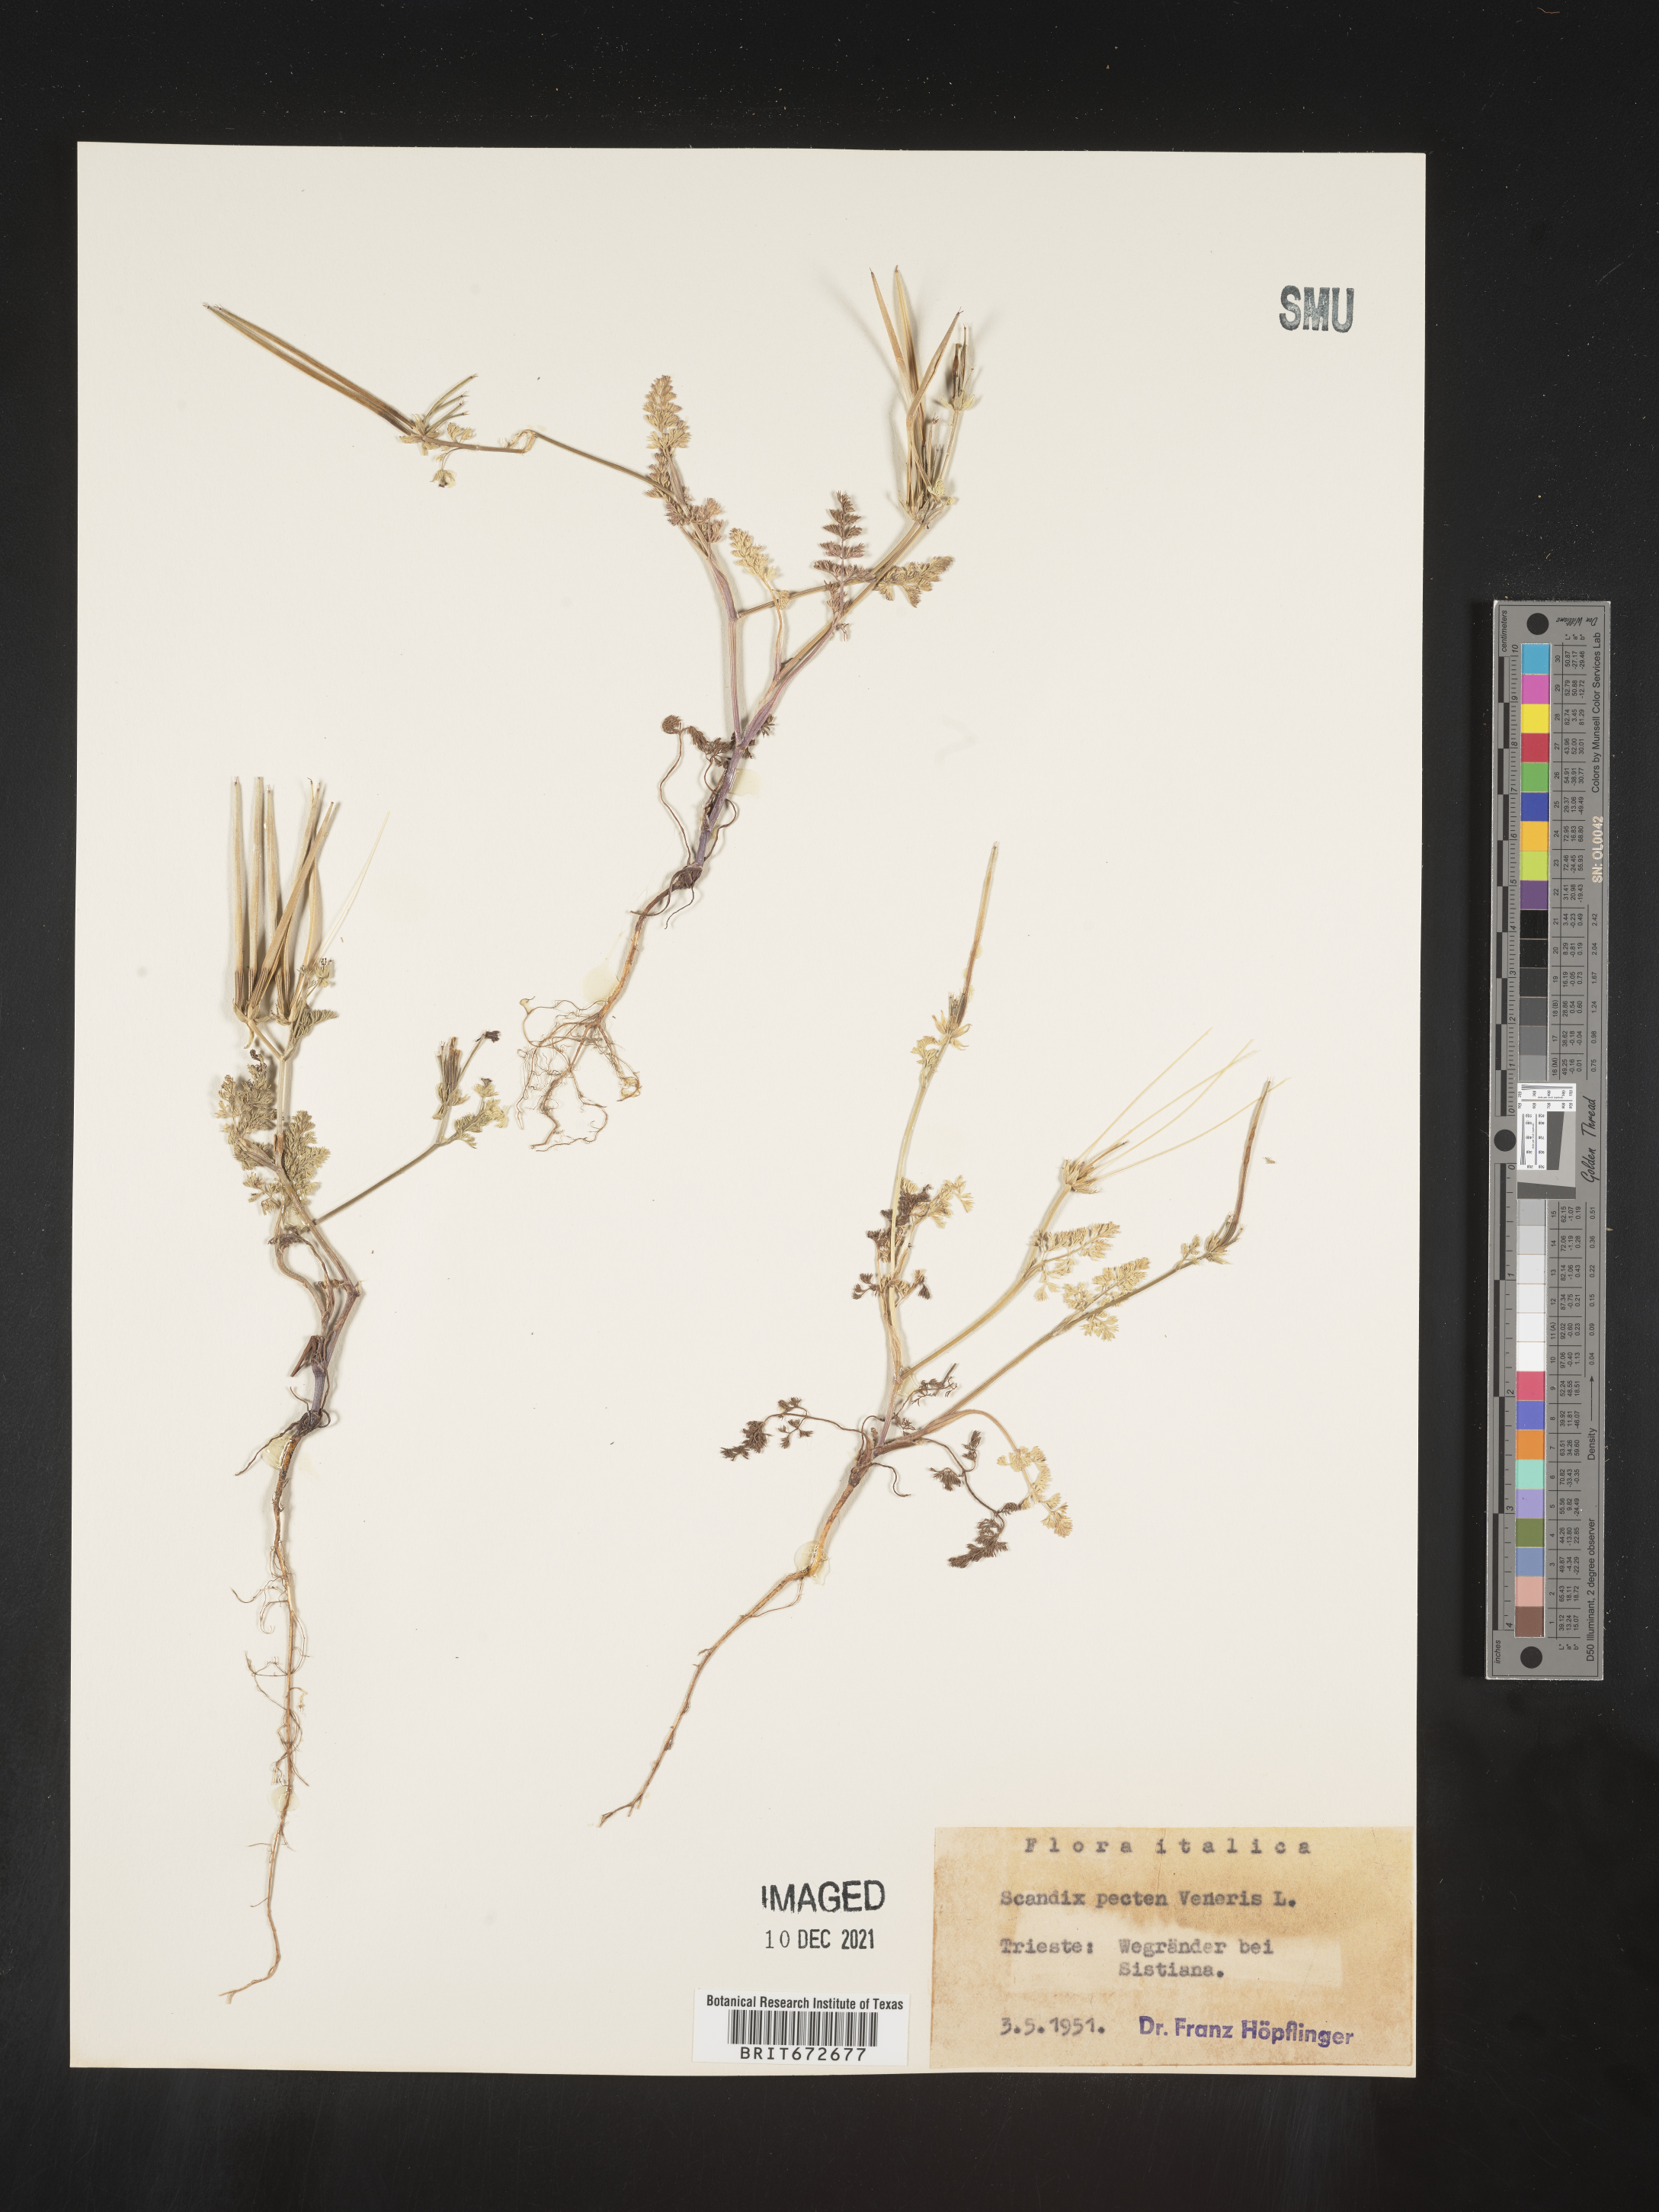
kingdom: Plantae
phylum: Tracheophyta
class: Magnoliopsida
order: Apiales
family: Apiaceae
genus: Scandix
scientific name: Scandix
